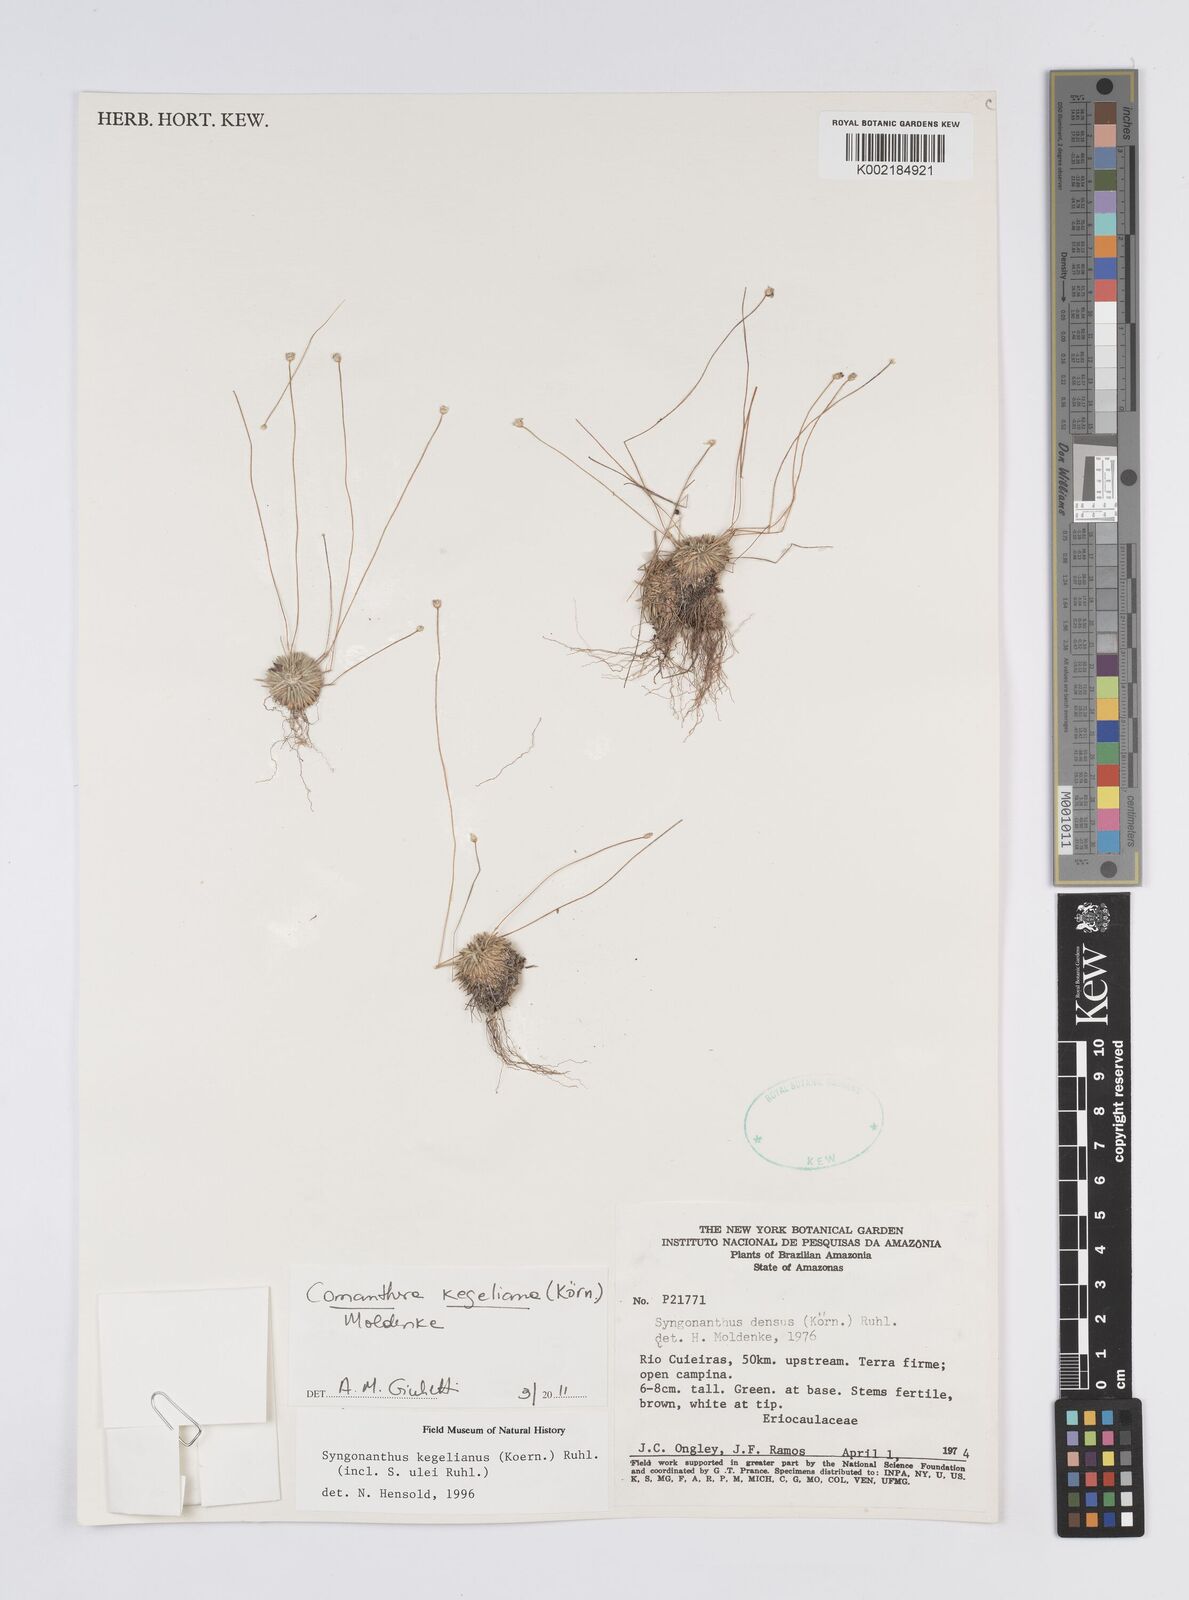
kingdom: Plantae
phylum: Tracheophyta
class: Liliopsida
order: Poales
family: Eriocaulaceae
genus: Comanthera
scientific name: Comanthera kegeliana
